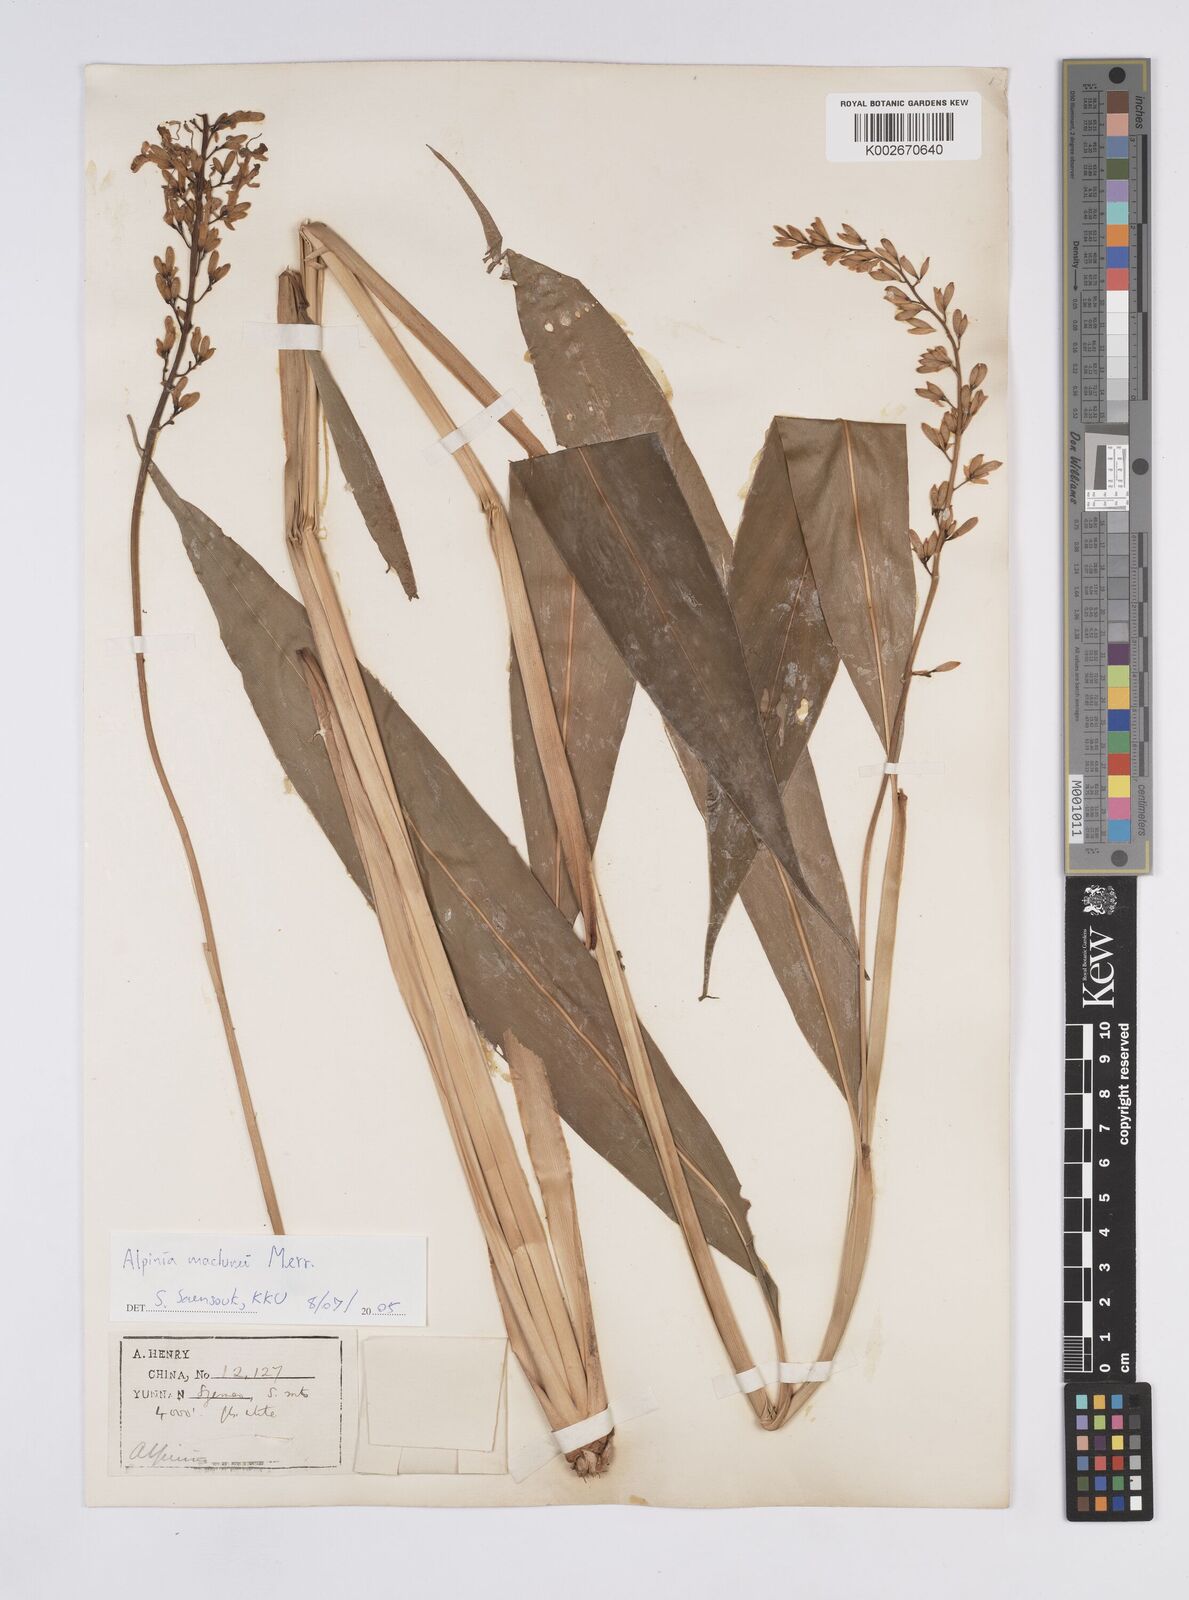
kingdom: Plantae
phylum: Tracheophyta
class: Liliopsida
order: Zingiberales
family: Zingiberaceae
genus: Alpinia
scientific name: Alpinia maclurei
